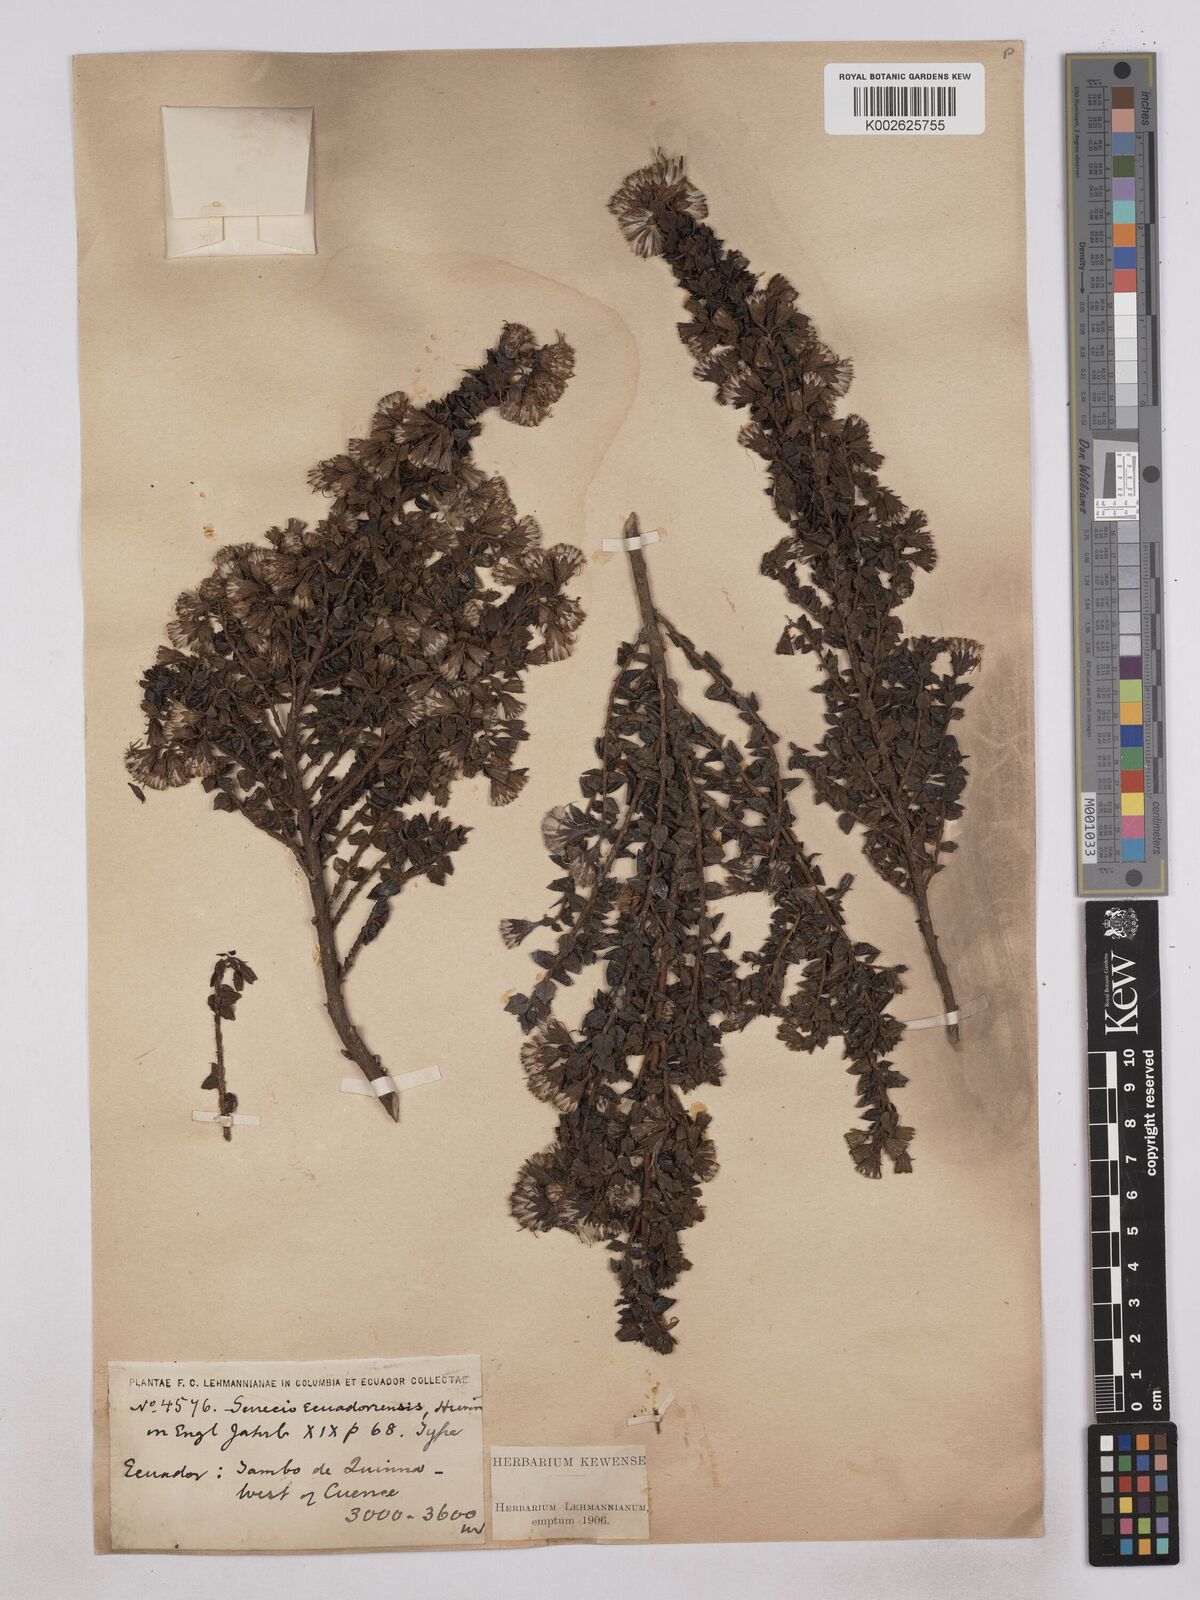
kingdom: Plantae
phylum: Tracheophyta
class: Magnoliopsida
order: Asterales
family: Asteraceae
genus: Monticalia
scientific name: Monticalia myrsinites
